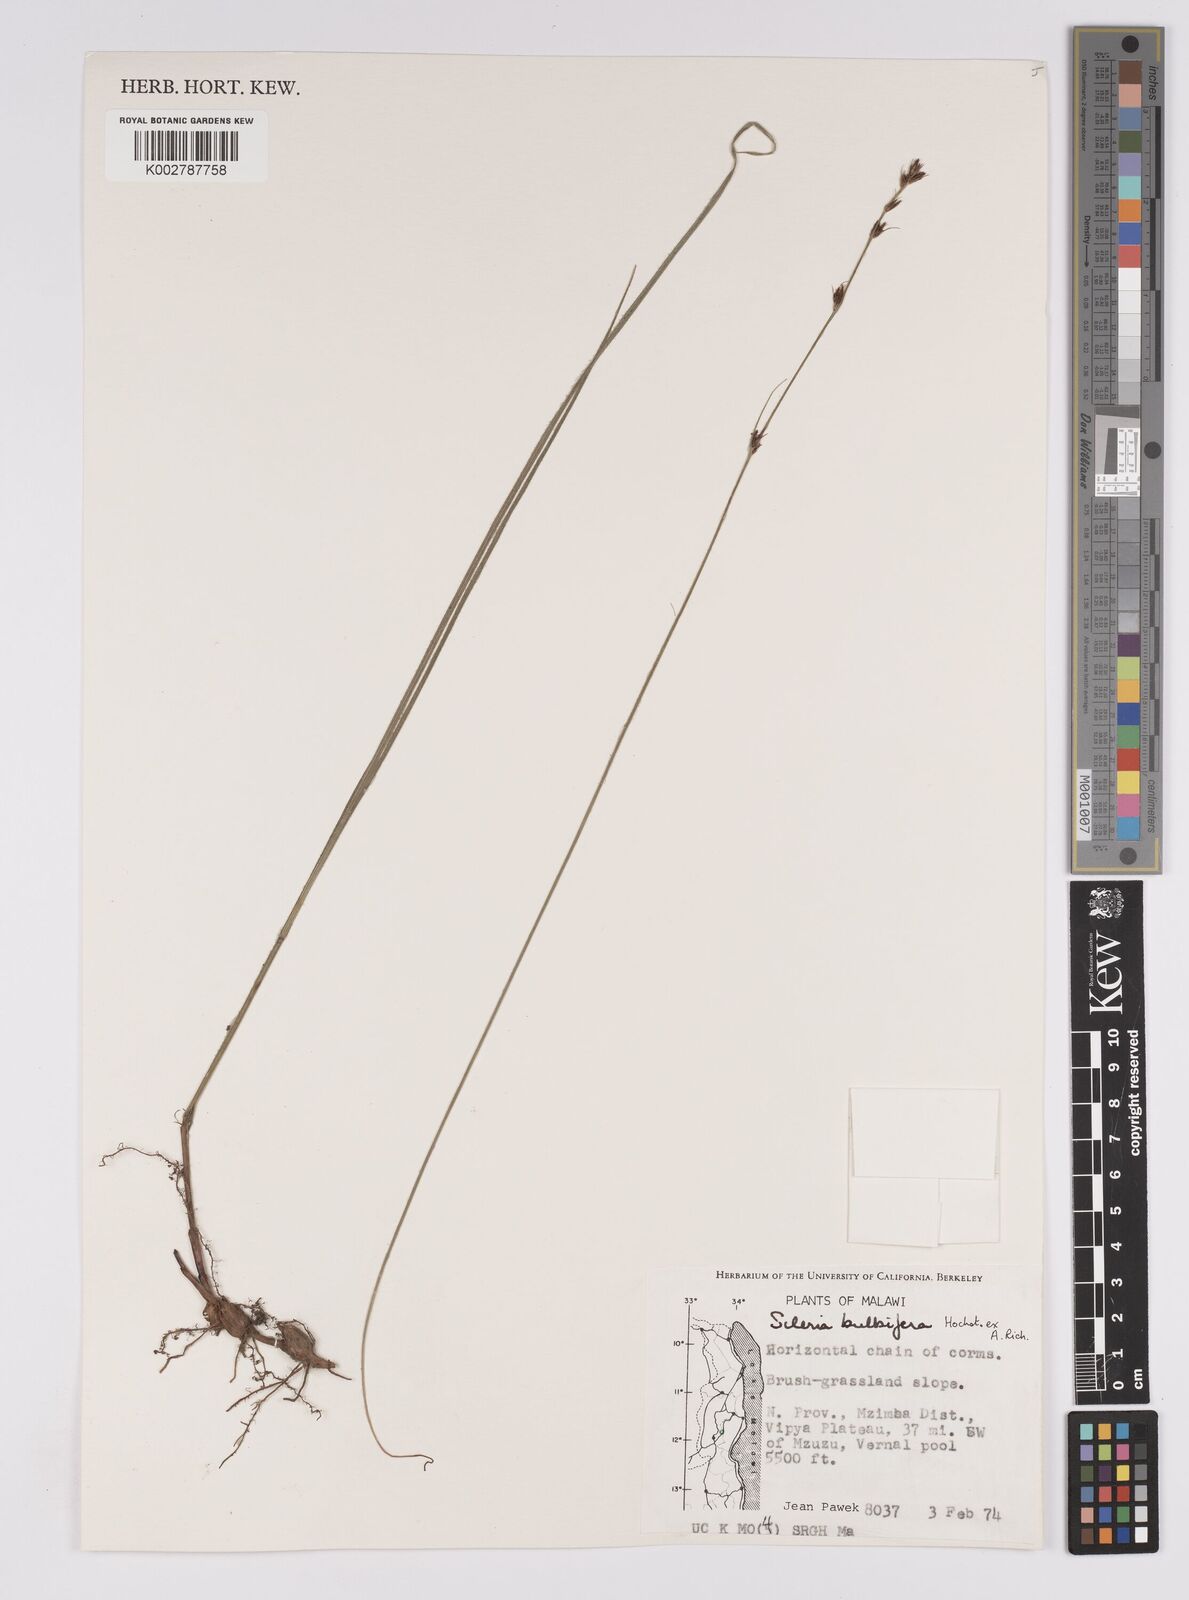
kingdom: Plantae
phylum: Tracheophyta
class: Liliopsida
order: Poales
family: Cyperaceae
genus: Scleria
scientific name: Scleria bulbifera
